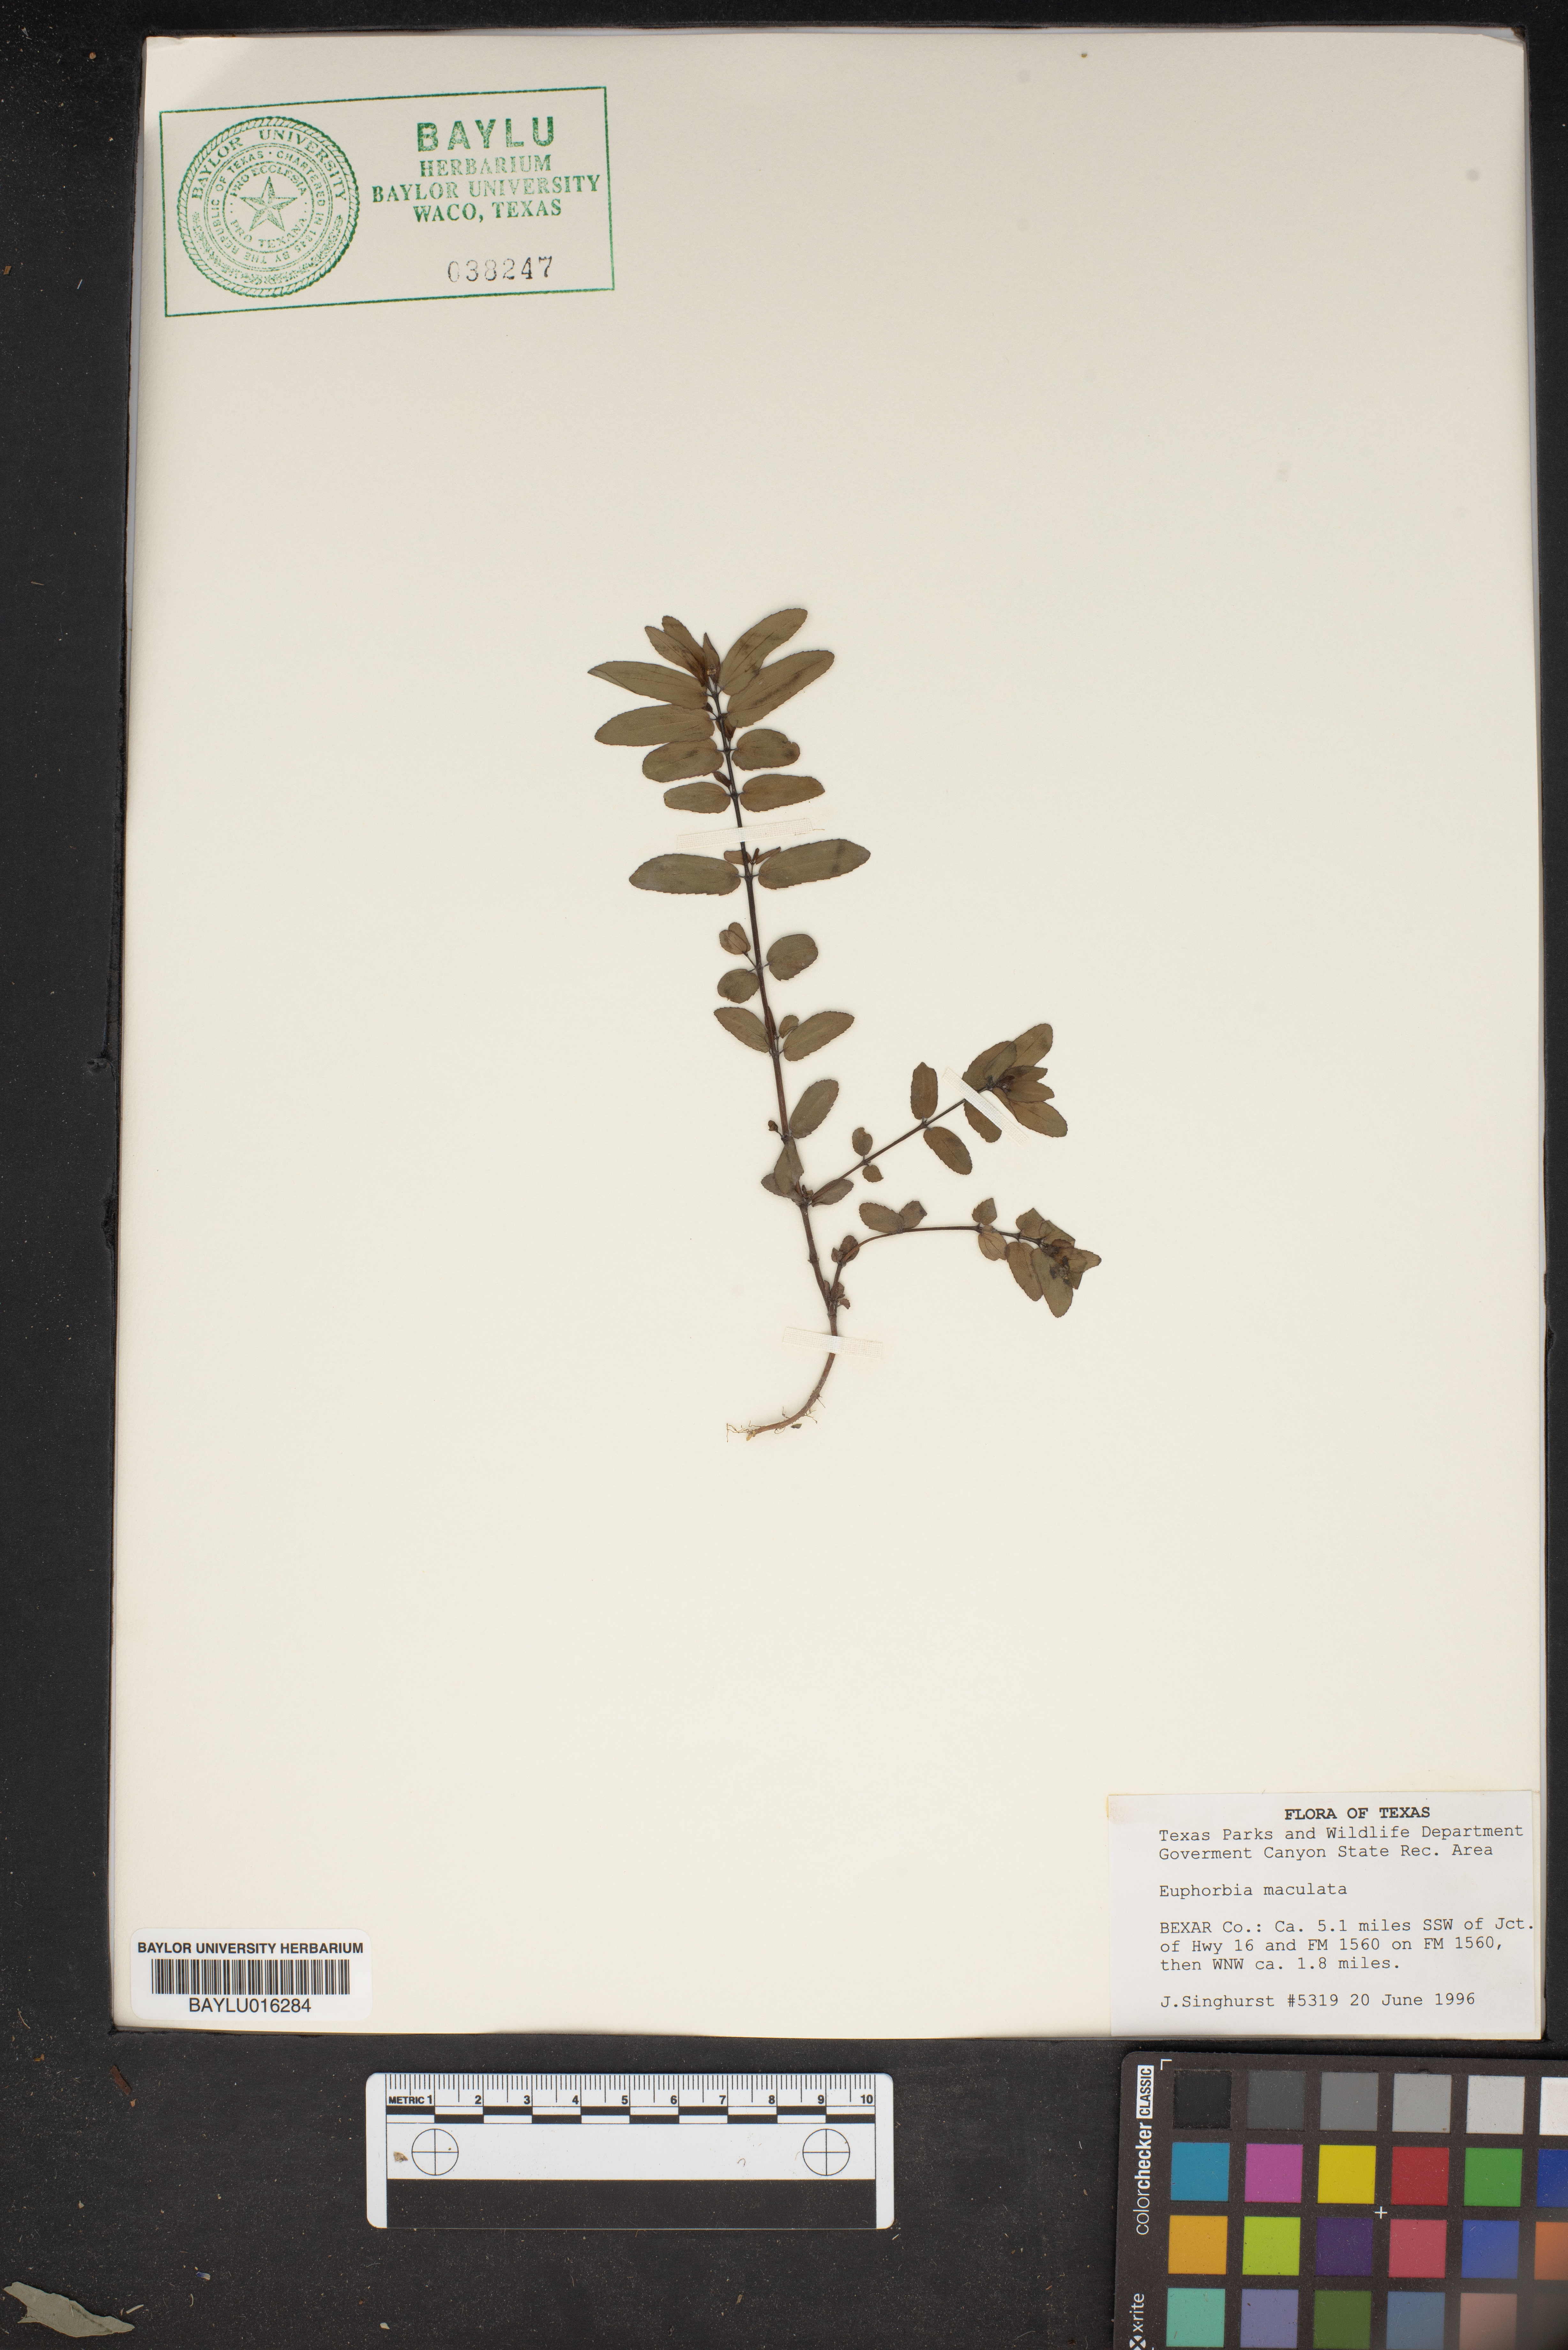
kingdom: Plantae
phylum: Tracheophyta
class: Magnoliopsida
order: Malpighiales
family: Euphorbiaceae
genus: Euphorbia
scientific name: Euphorbia maculata
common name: Spotted spurge
